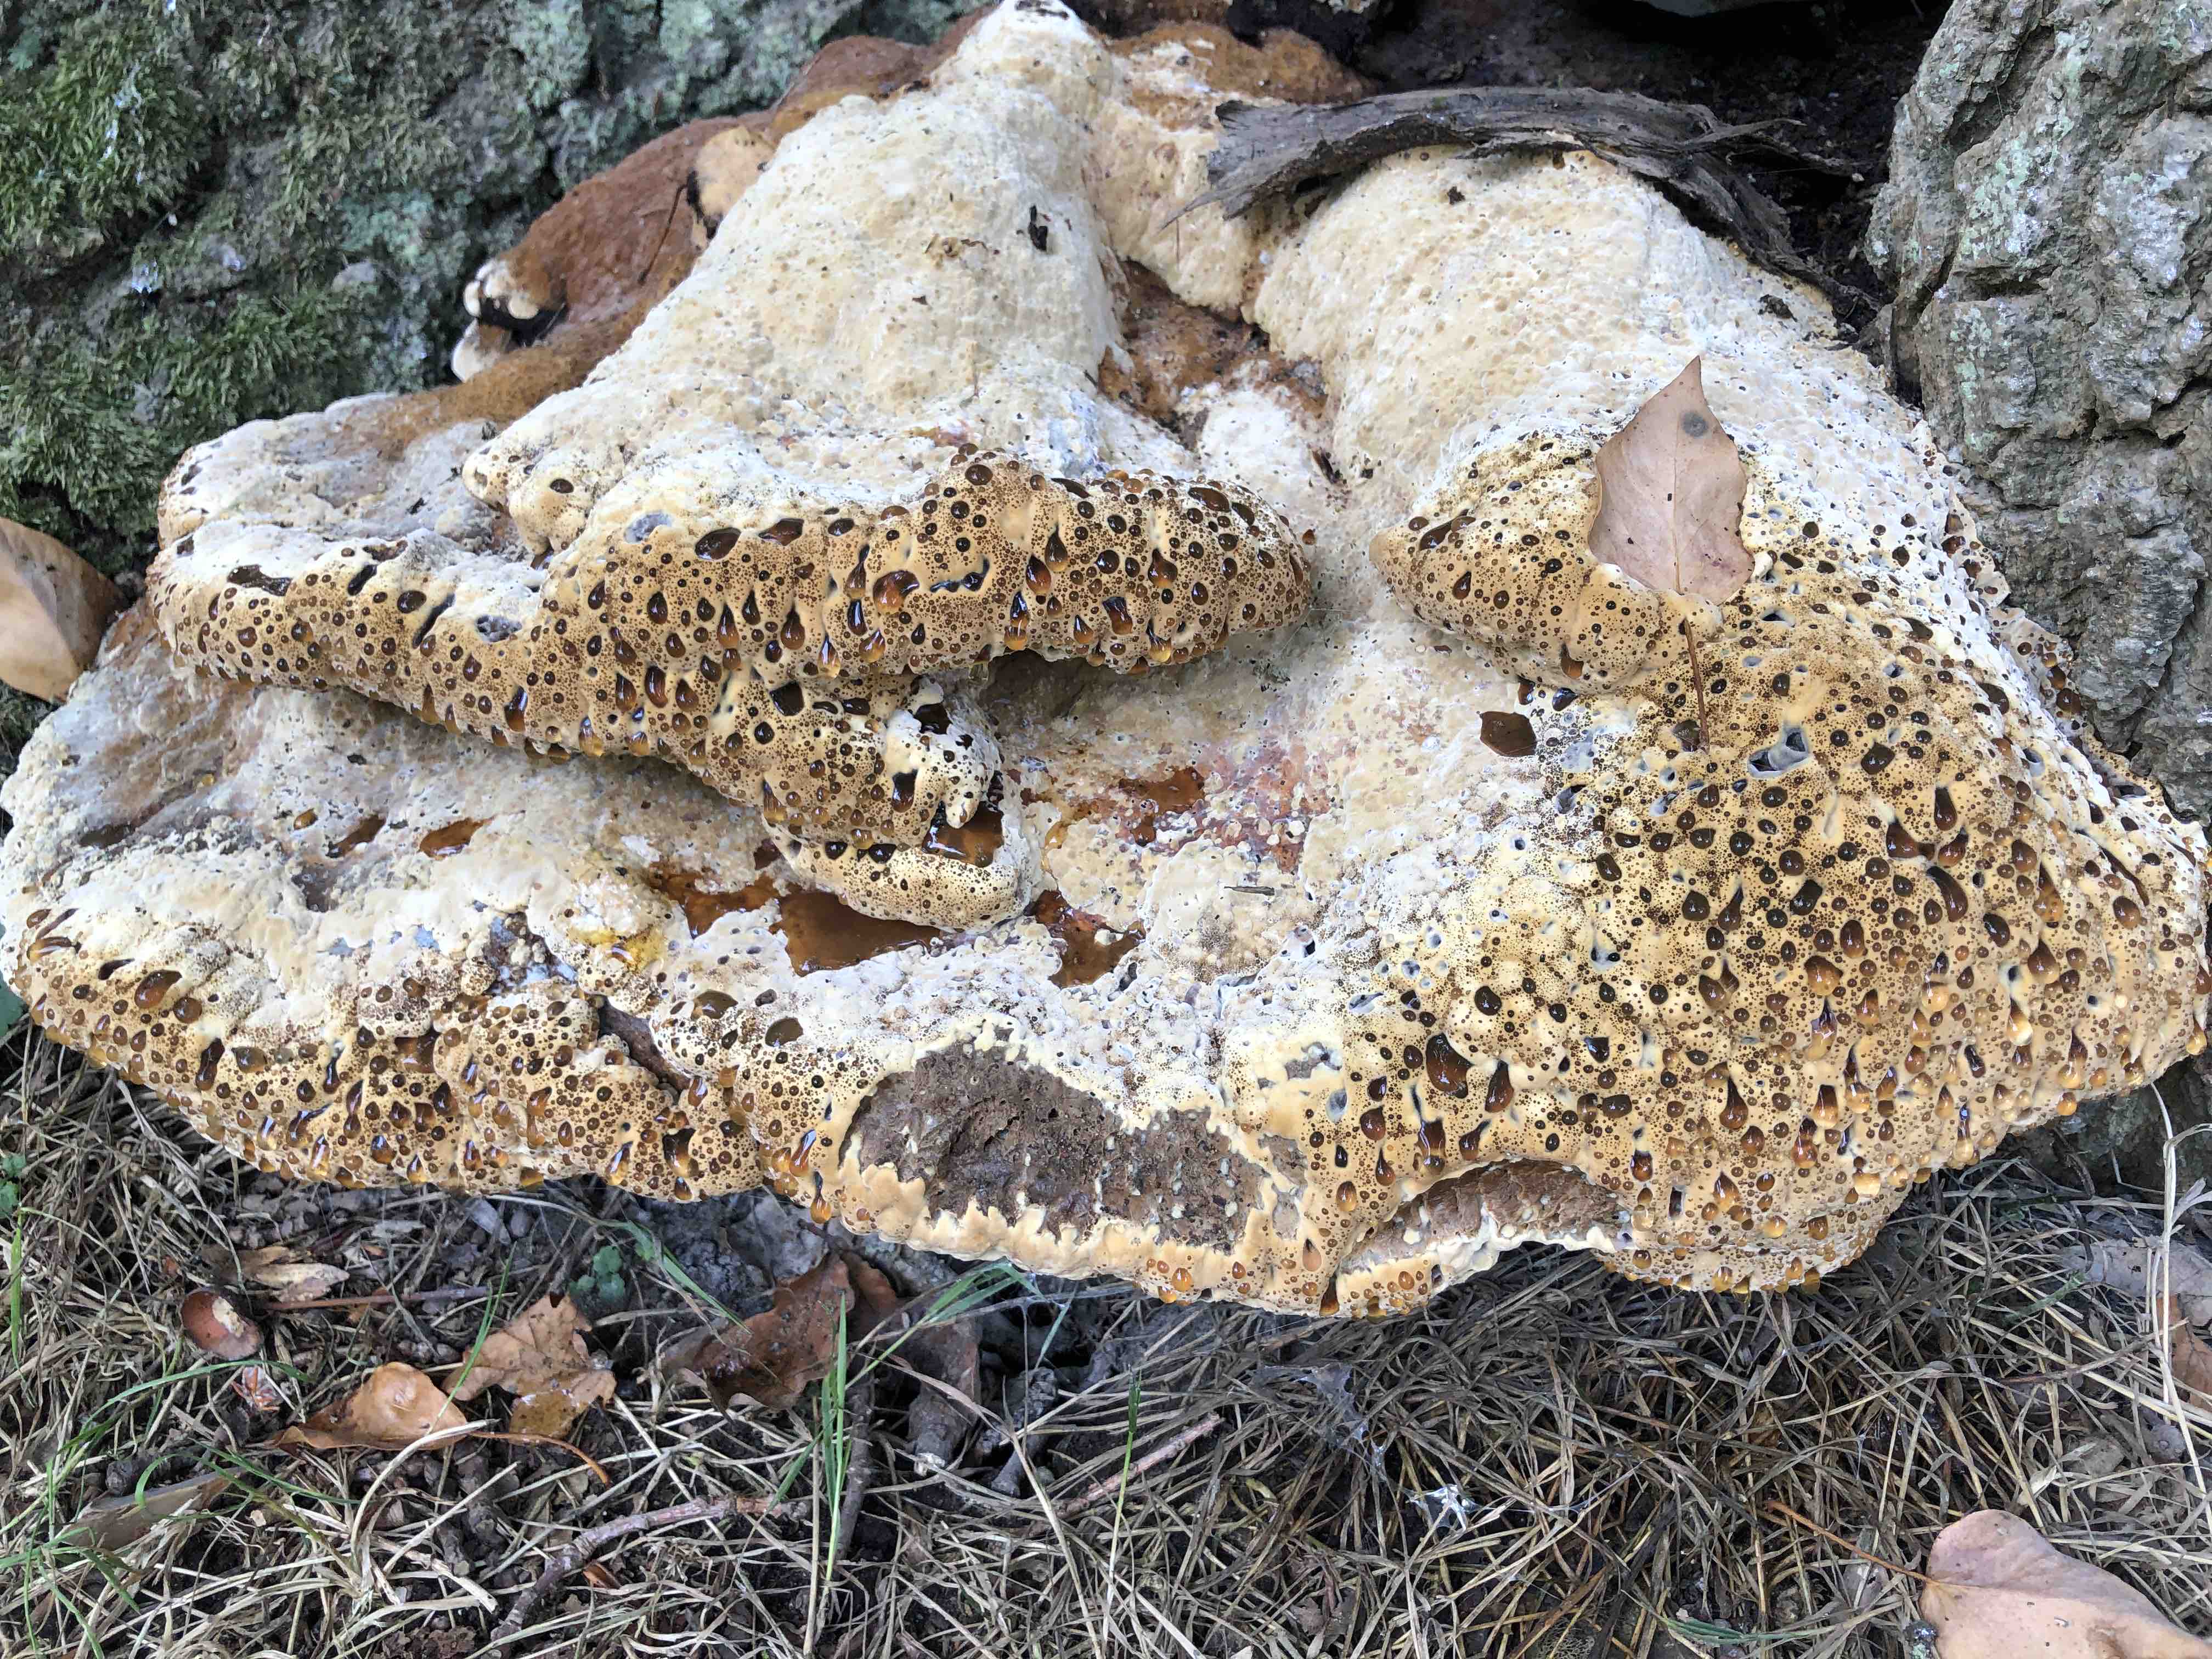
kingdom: Fungi
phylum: Basidiomycota
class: Agaricomycetes
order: Hymenochaetales
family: Hymenochaetaceae
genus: Pseudoinonotus
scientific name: Pseudoinonotus dryadeus
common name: ege-spejlporesvamp
